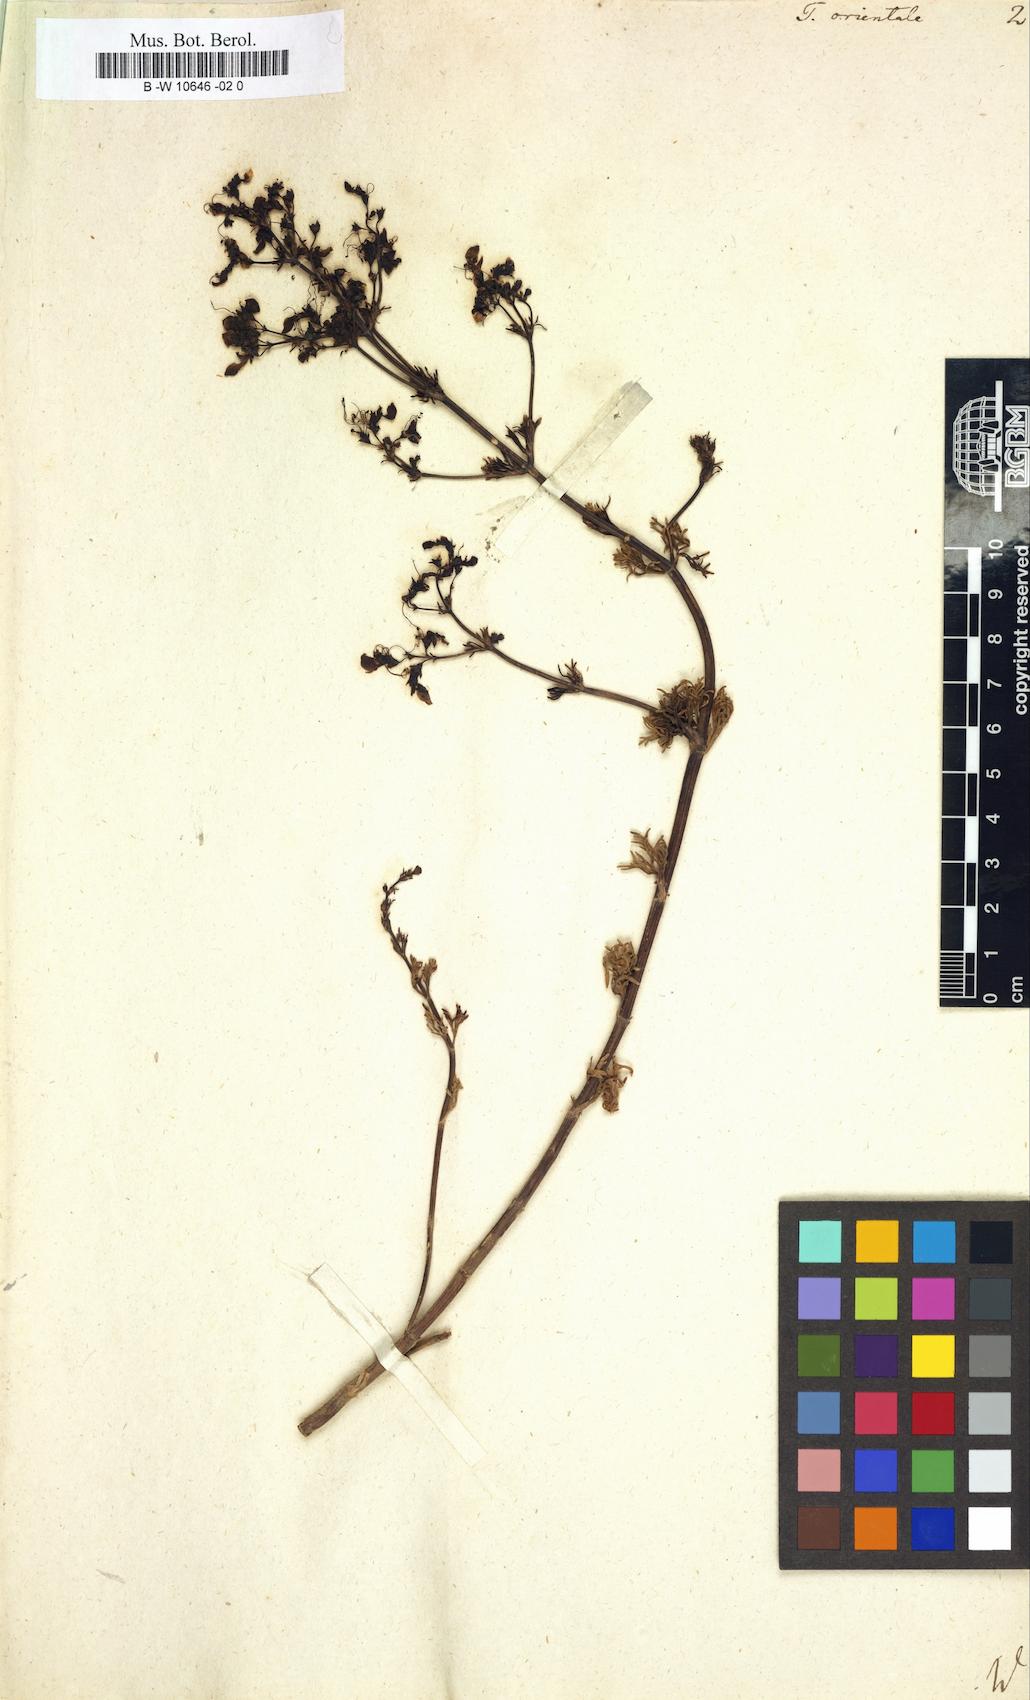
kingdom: Plantae
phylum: Tracheophyta
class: Magnoliopsida
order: Lamiales
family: Lamiaceae
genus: Teucrium
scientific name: Teucrium orientale
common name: Oriental germander
